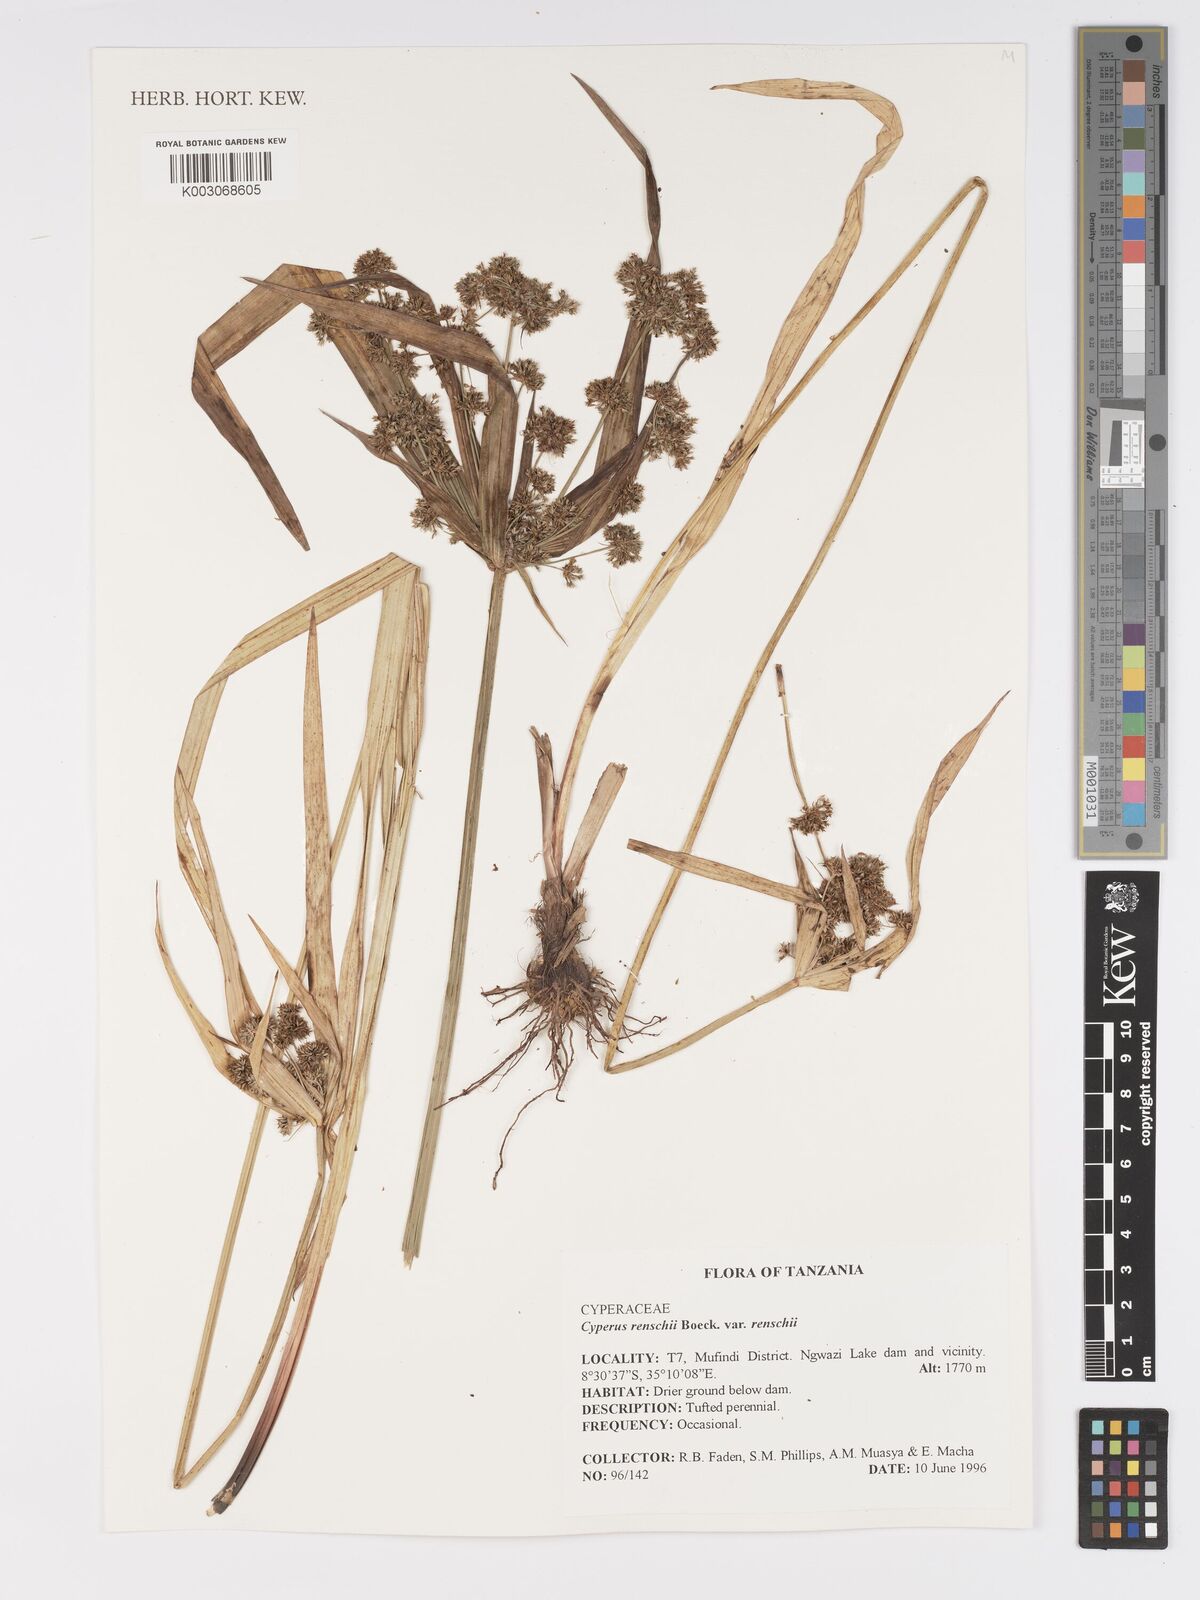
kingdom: Plantae
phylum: Tracheophyta
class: Liliopsida
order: Poales
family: Cyperaceae
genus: Cyperus
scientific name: Cyperus renschii
